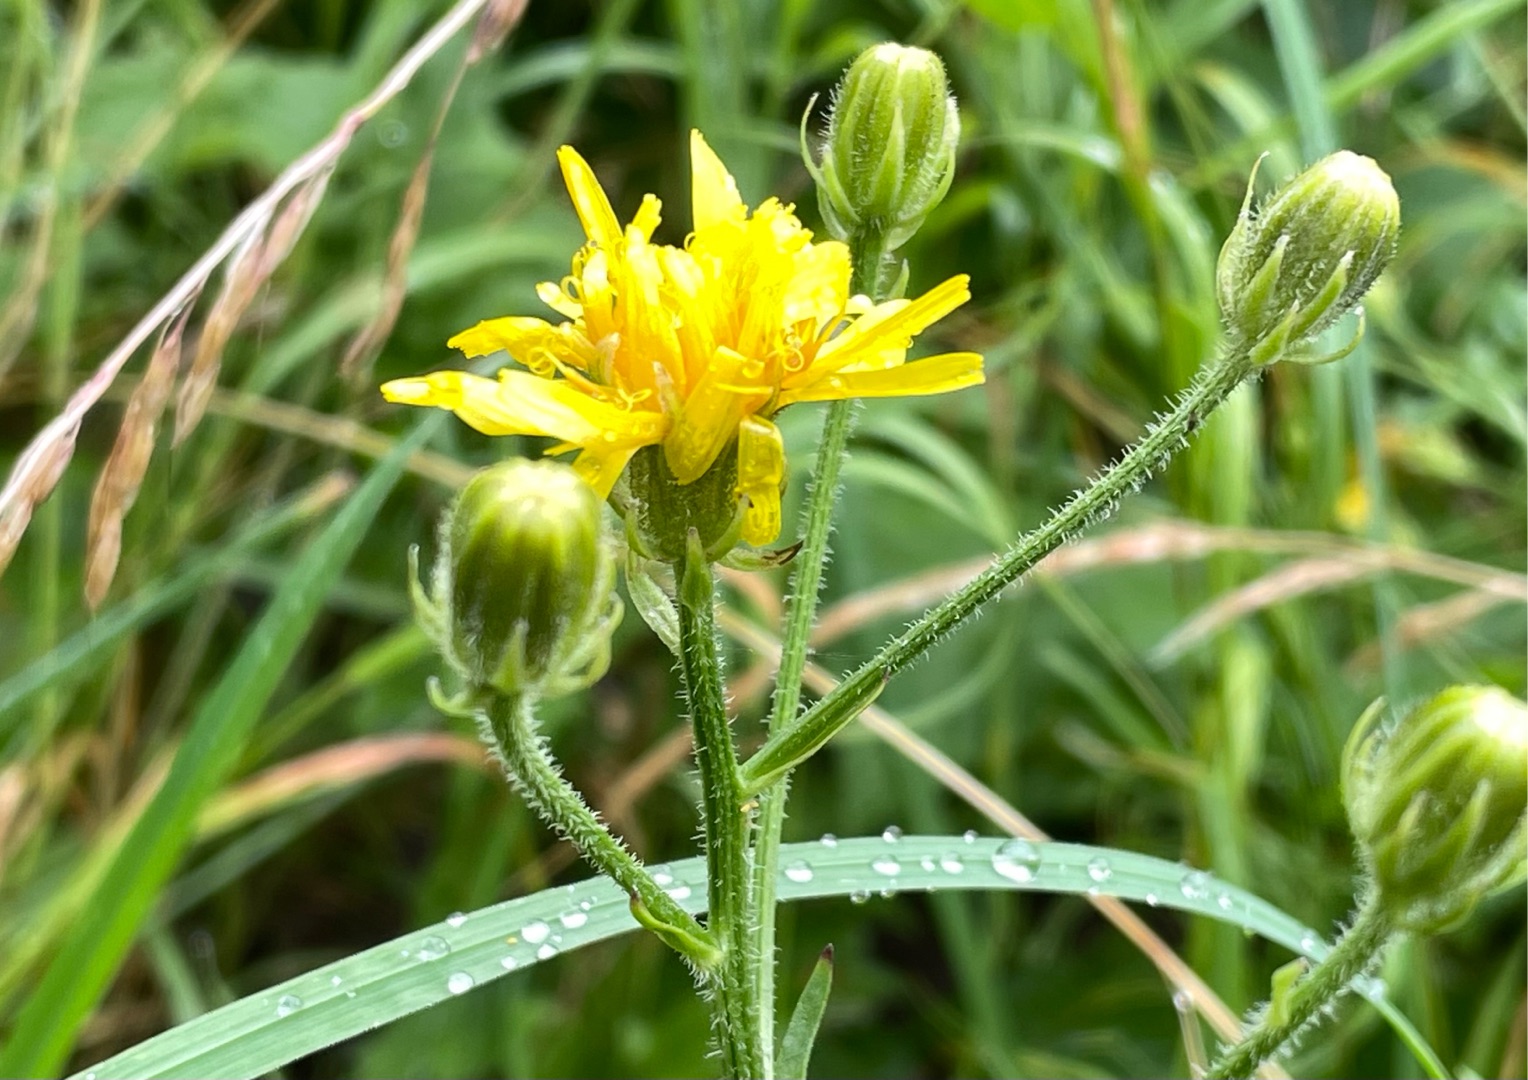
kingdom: Plantae
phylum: Tracheophyta
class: Magnoliopsida
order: Asterales
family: Asteraceae
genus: Crepis
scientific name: Crepis biennis
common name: Toårig høgeskæg
